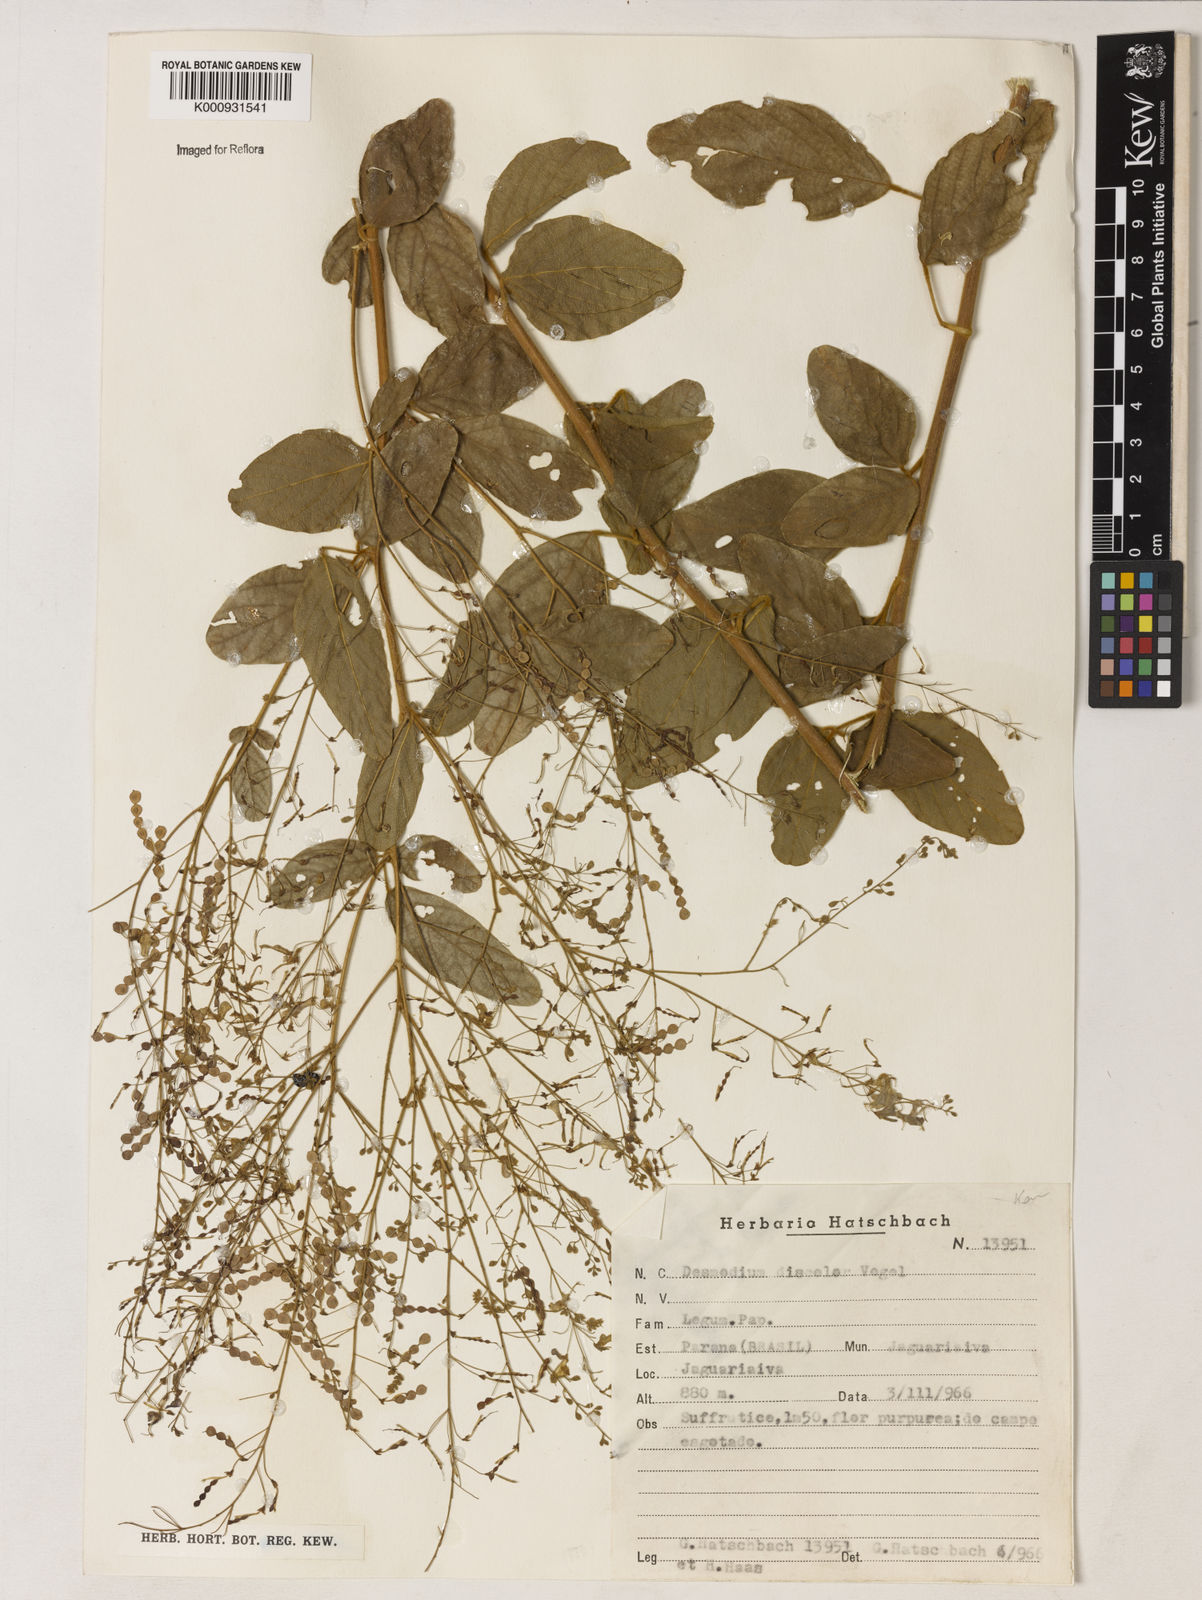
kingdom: Plantae
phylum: Tracheophyta
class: Magnoliopsida
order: Fabales
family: Fabaceae
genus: Desmodium
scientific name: Desmodium subsecundum
